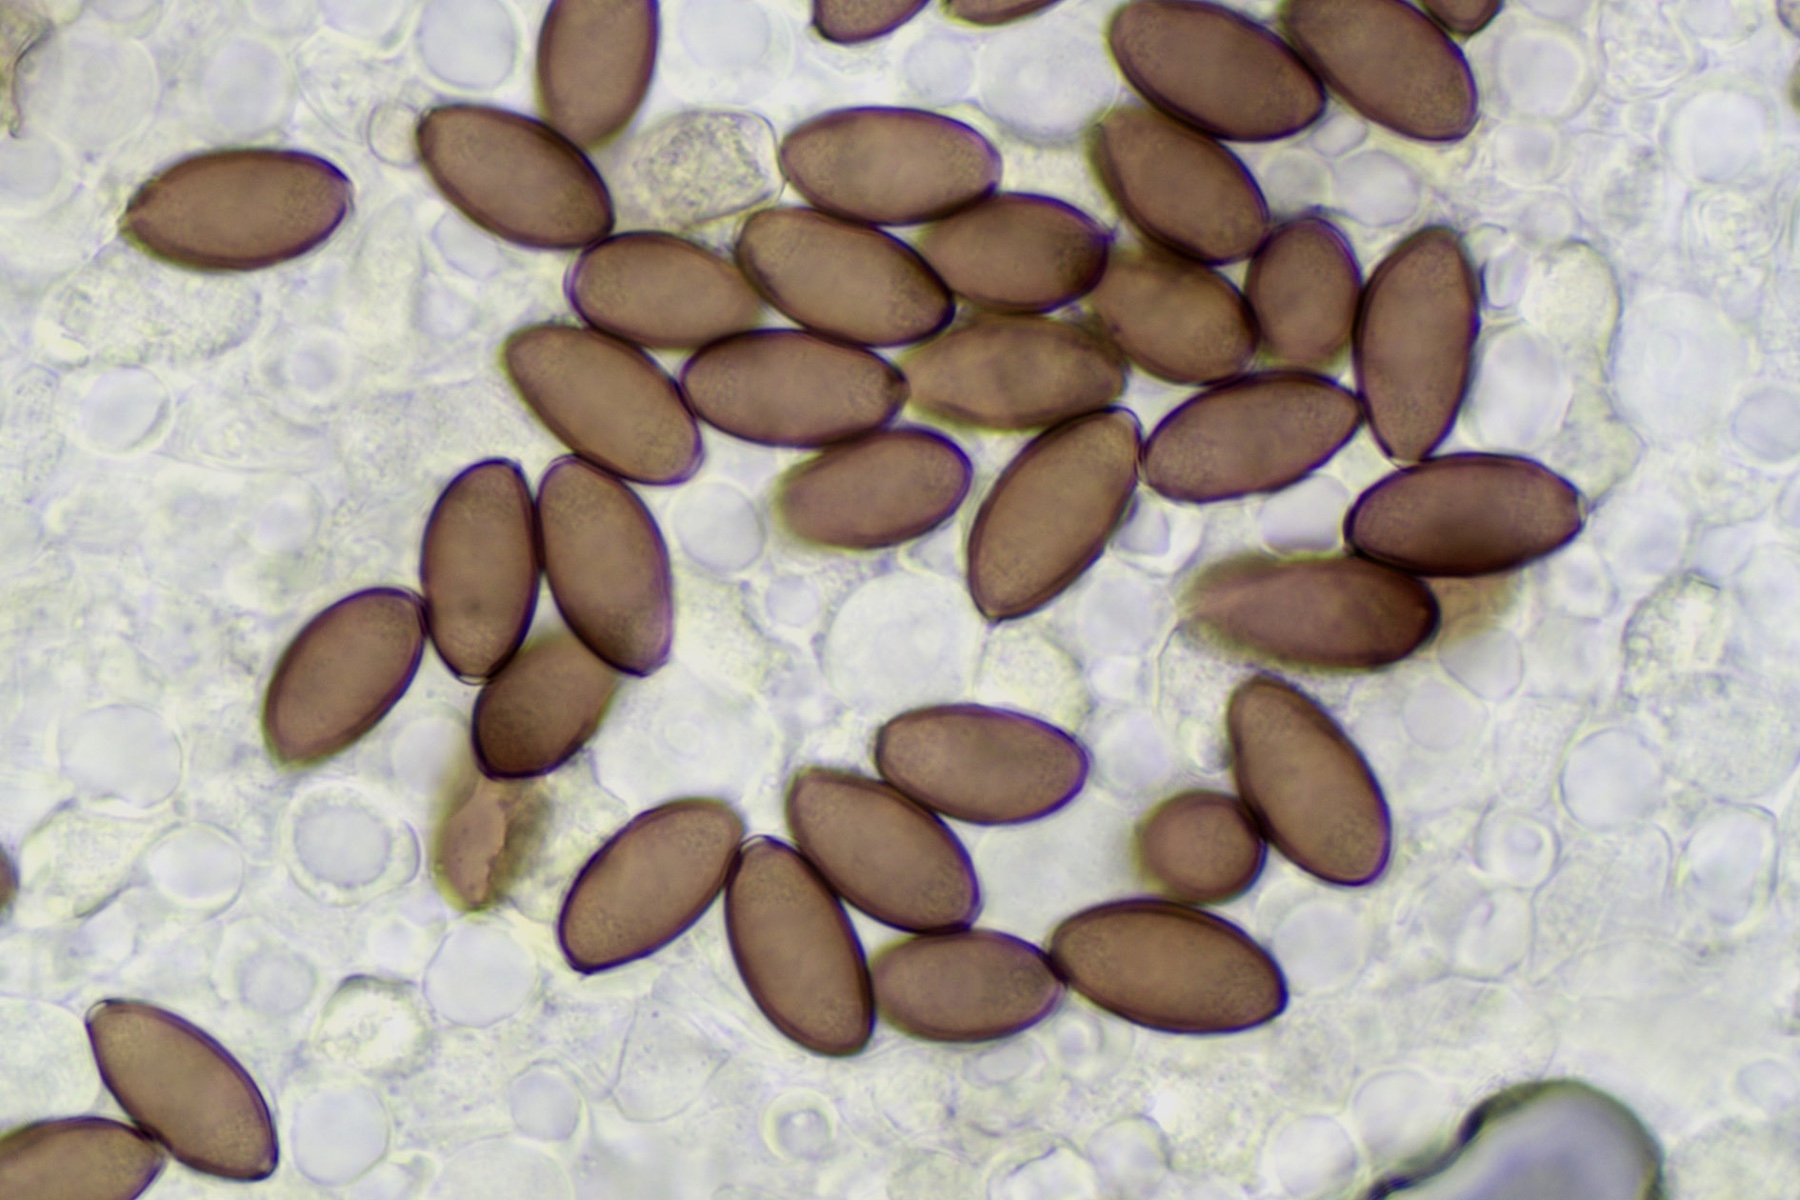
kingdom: Fungi
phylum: Basidiomycota
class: Agaricomycetes
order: Agaricales
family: Hymenogastraceae
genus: Psilocybe
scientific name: Psilocybe subcoprophila
